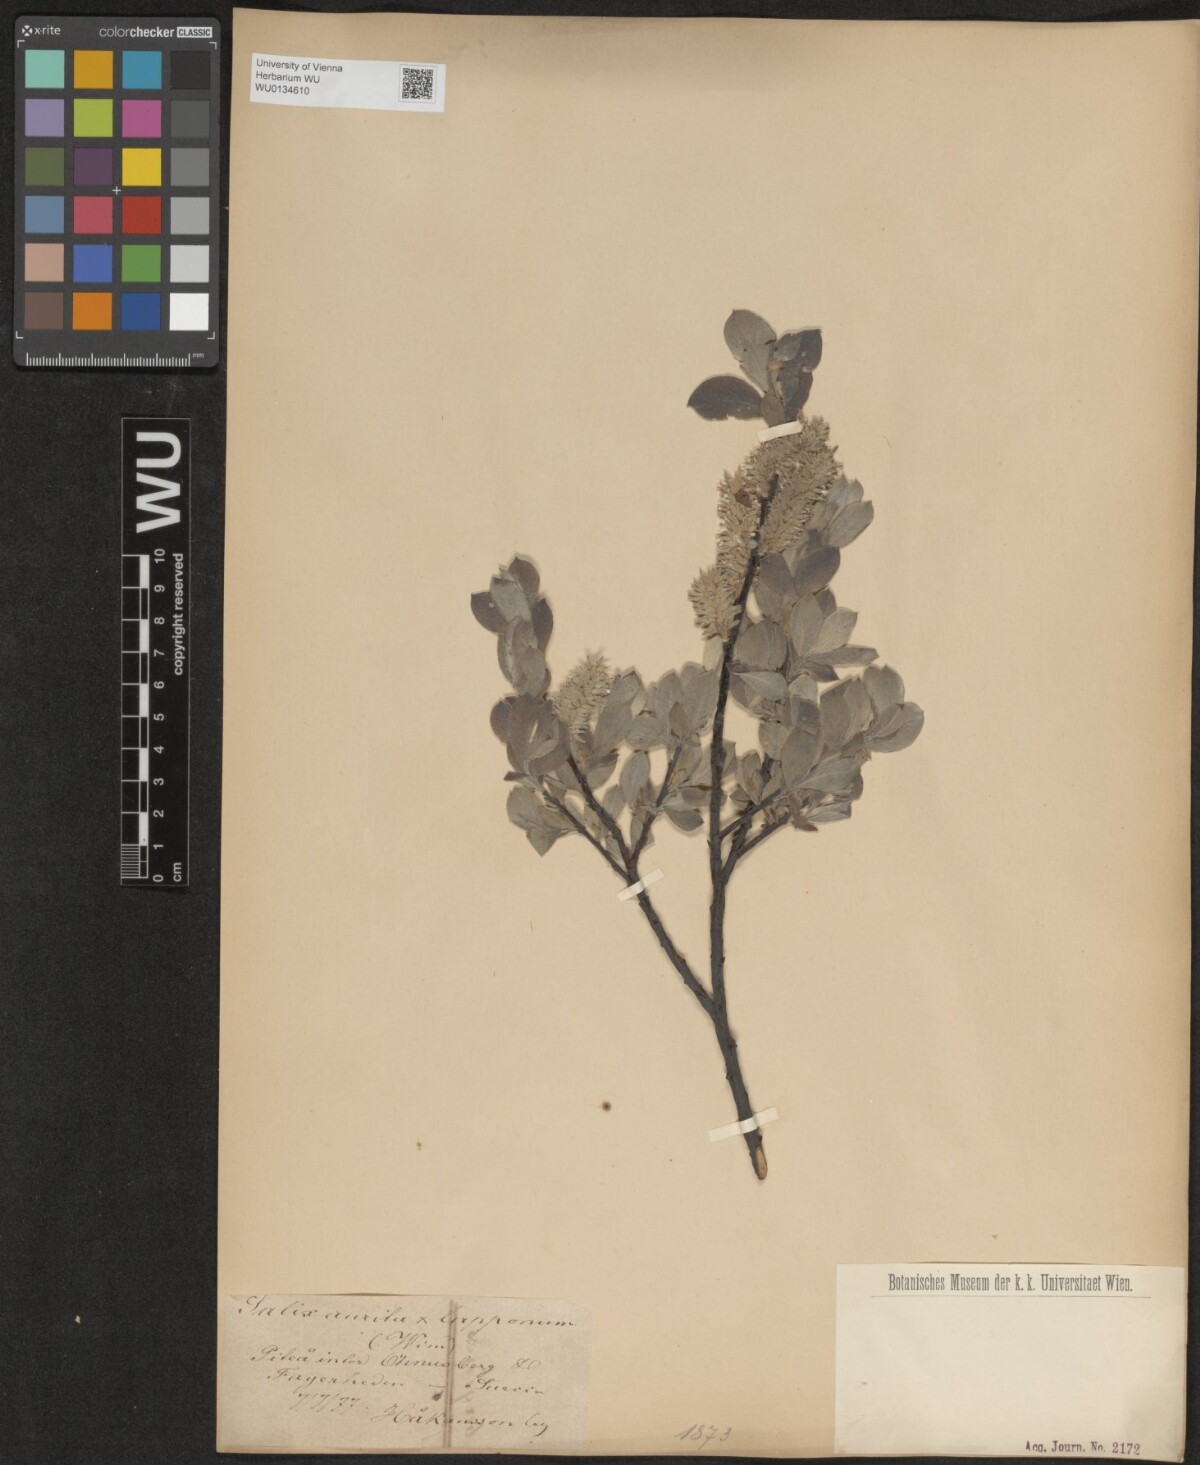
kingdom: Plantae
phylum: Tracheophyta
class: Magnoliopsida
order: Malpighiales
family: Salicaceae
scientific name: Salicaceae
